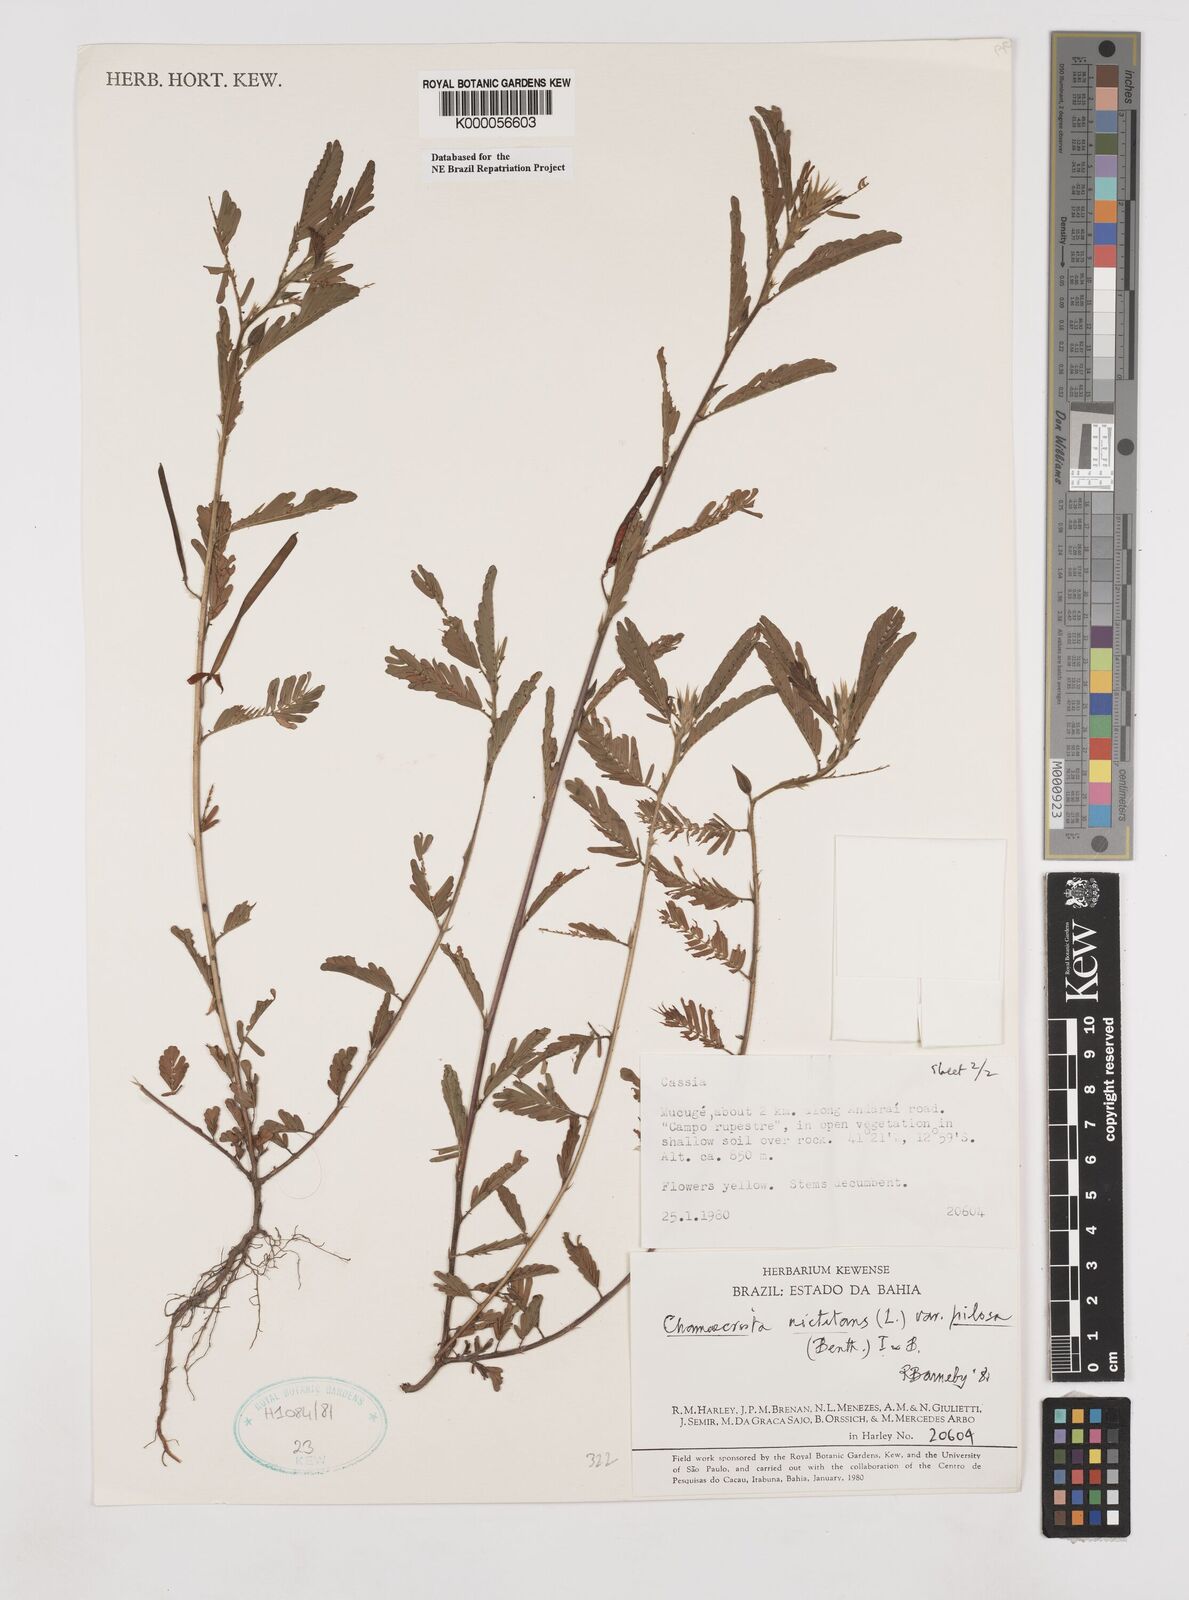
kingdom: Plantae
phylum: Tracheophyta
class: Magnoliopsida
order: Fabales
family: Fabaceae
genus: Chamaecrista
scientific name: Chamaecrista nictitans
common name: Sensitive cassia
